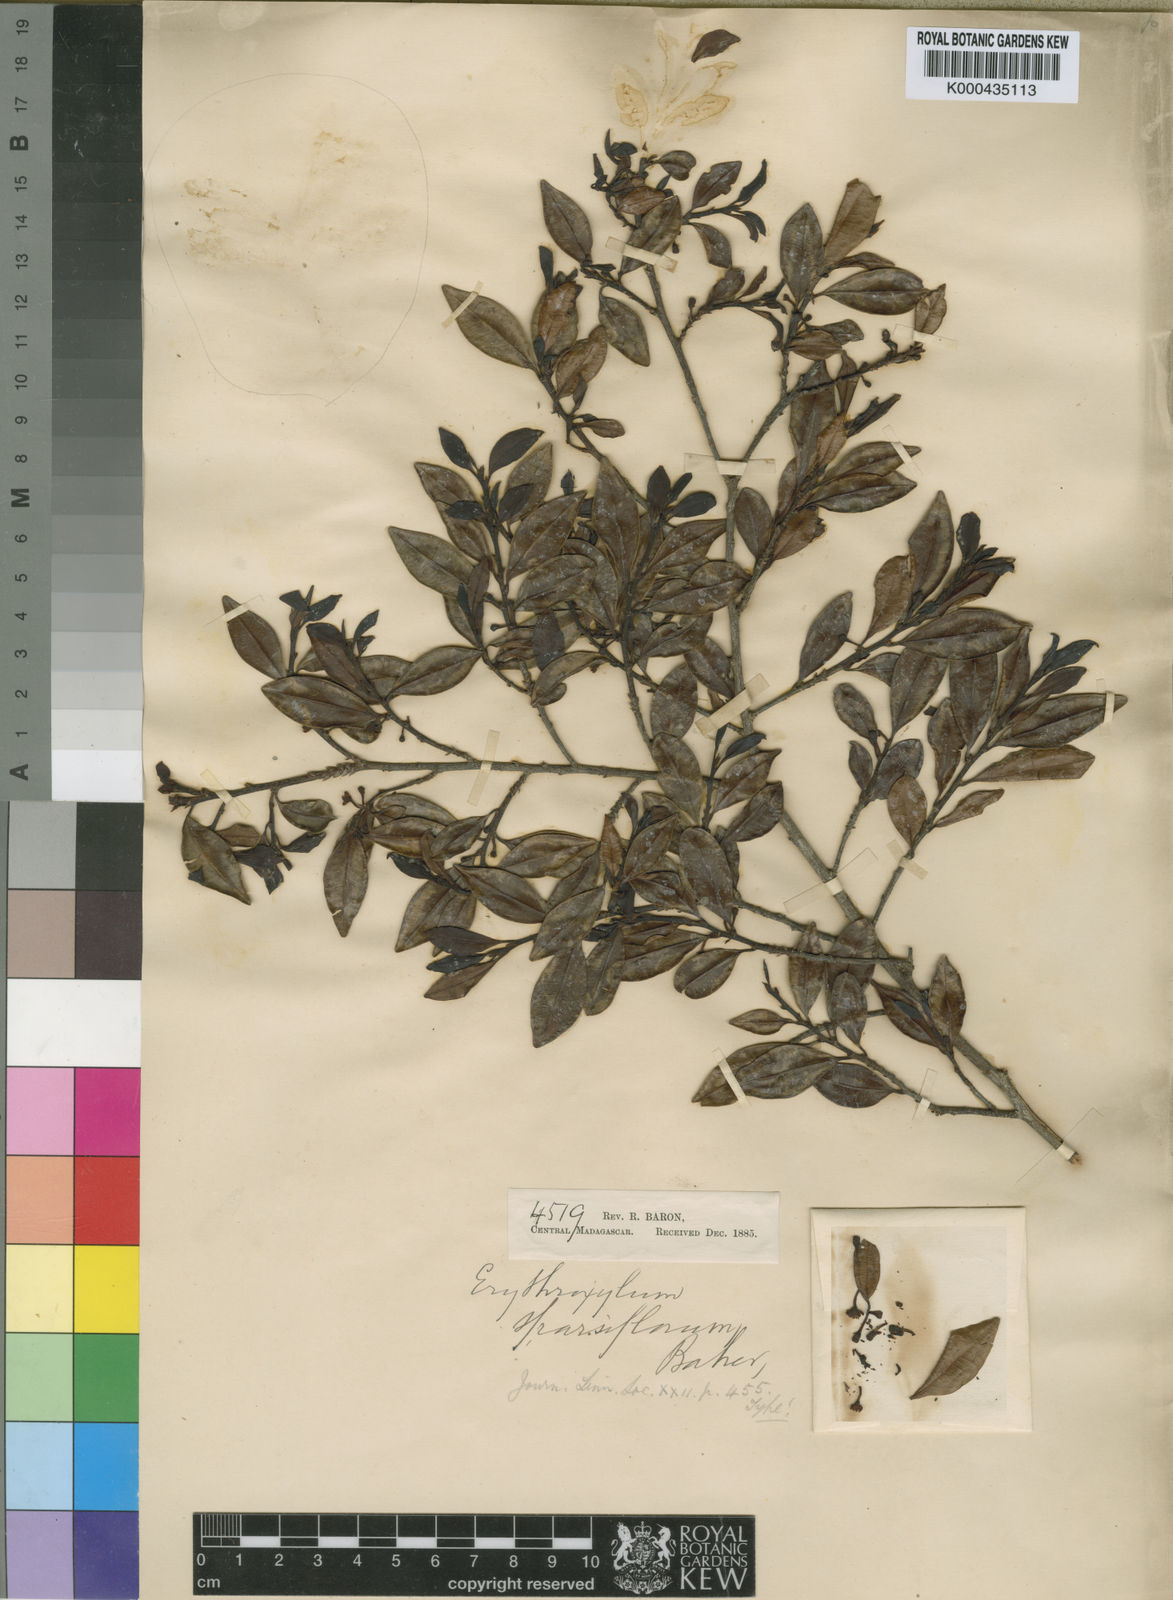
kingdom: Plantae
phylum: Tracheophyta
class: Magnoliopsida
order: Malpighiales
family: Erythroxylaceae
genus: Erythroxylum
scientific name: Erythroxylum nitidulum
